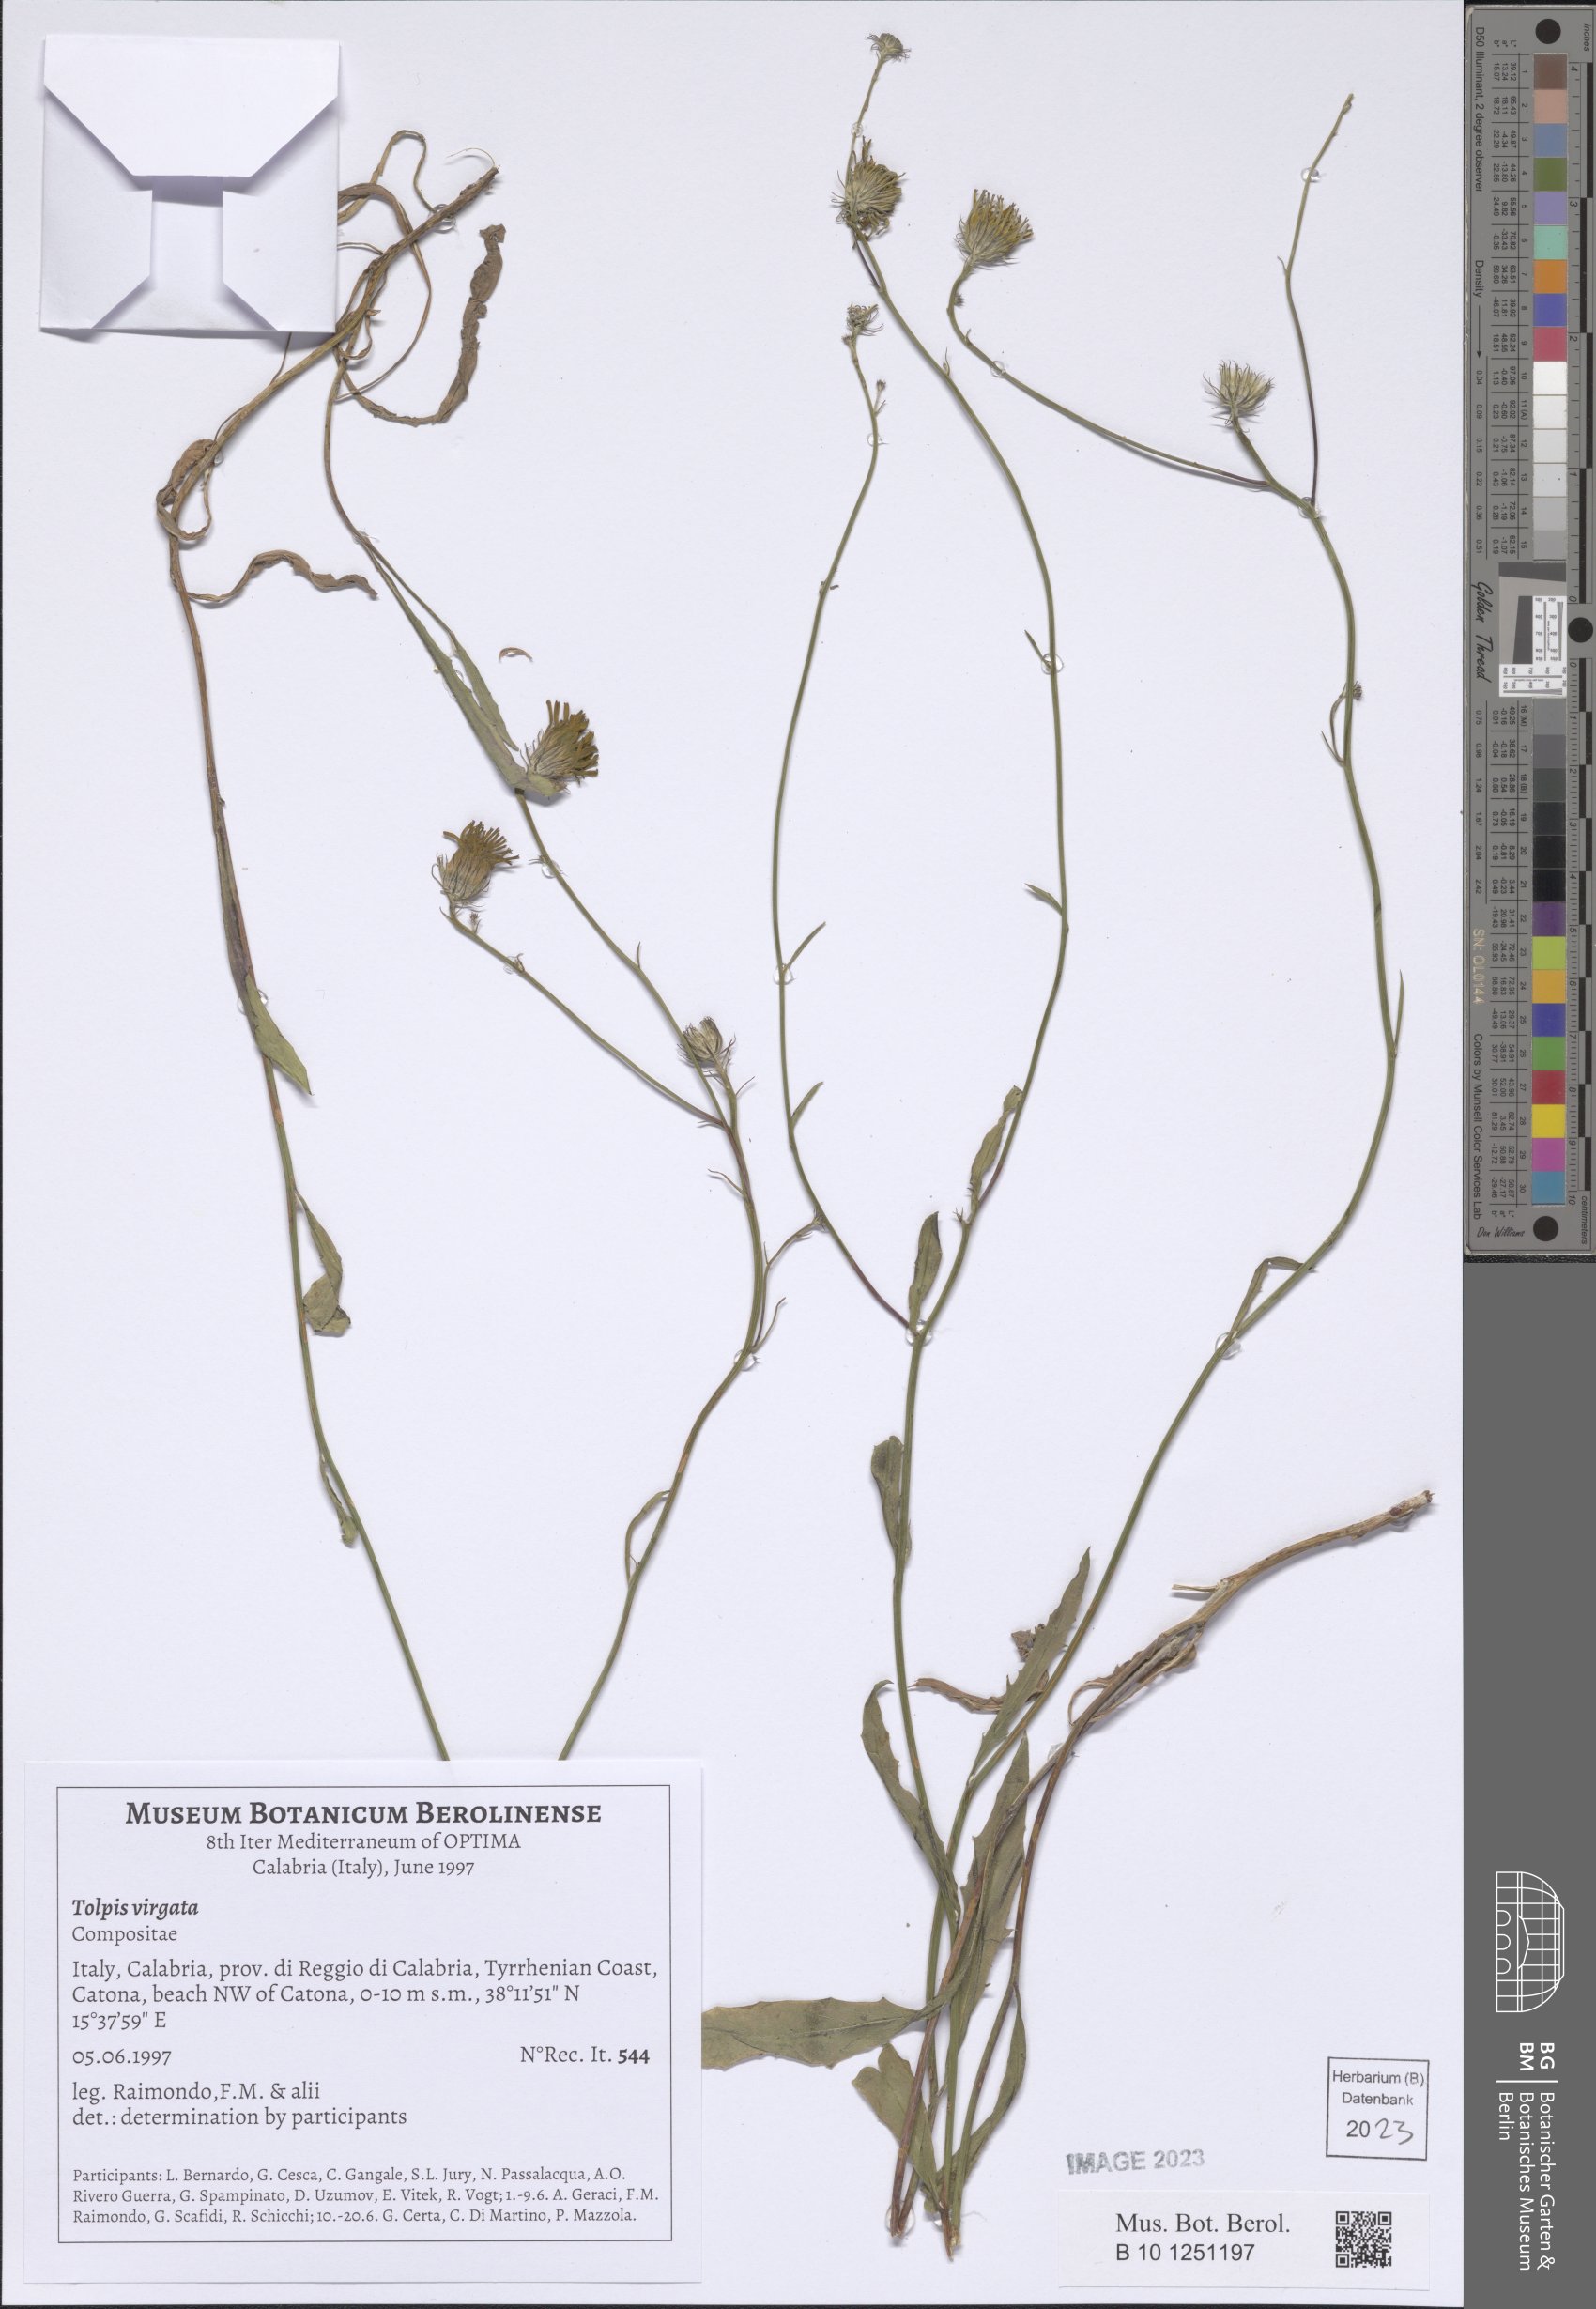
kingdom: Plantae
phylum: Tracheophyta
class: Magnoliopsida
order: Asterales
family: Asteraceae
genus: Tolpis
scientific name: Tolpis virgata
